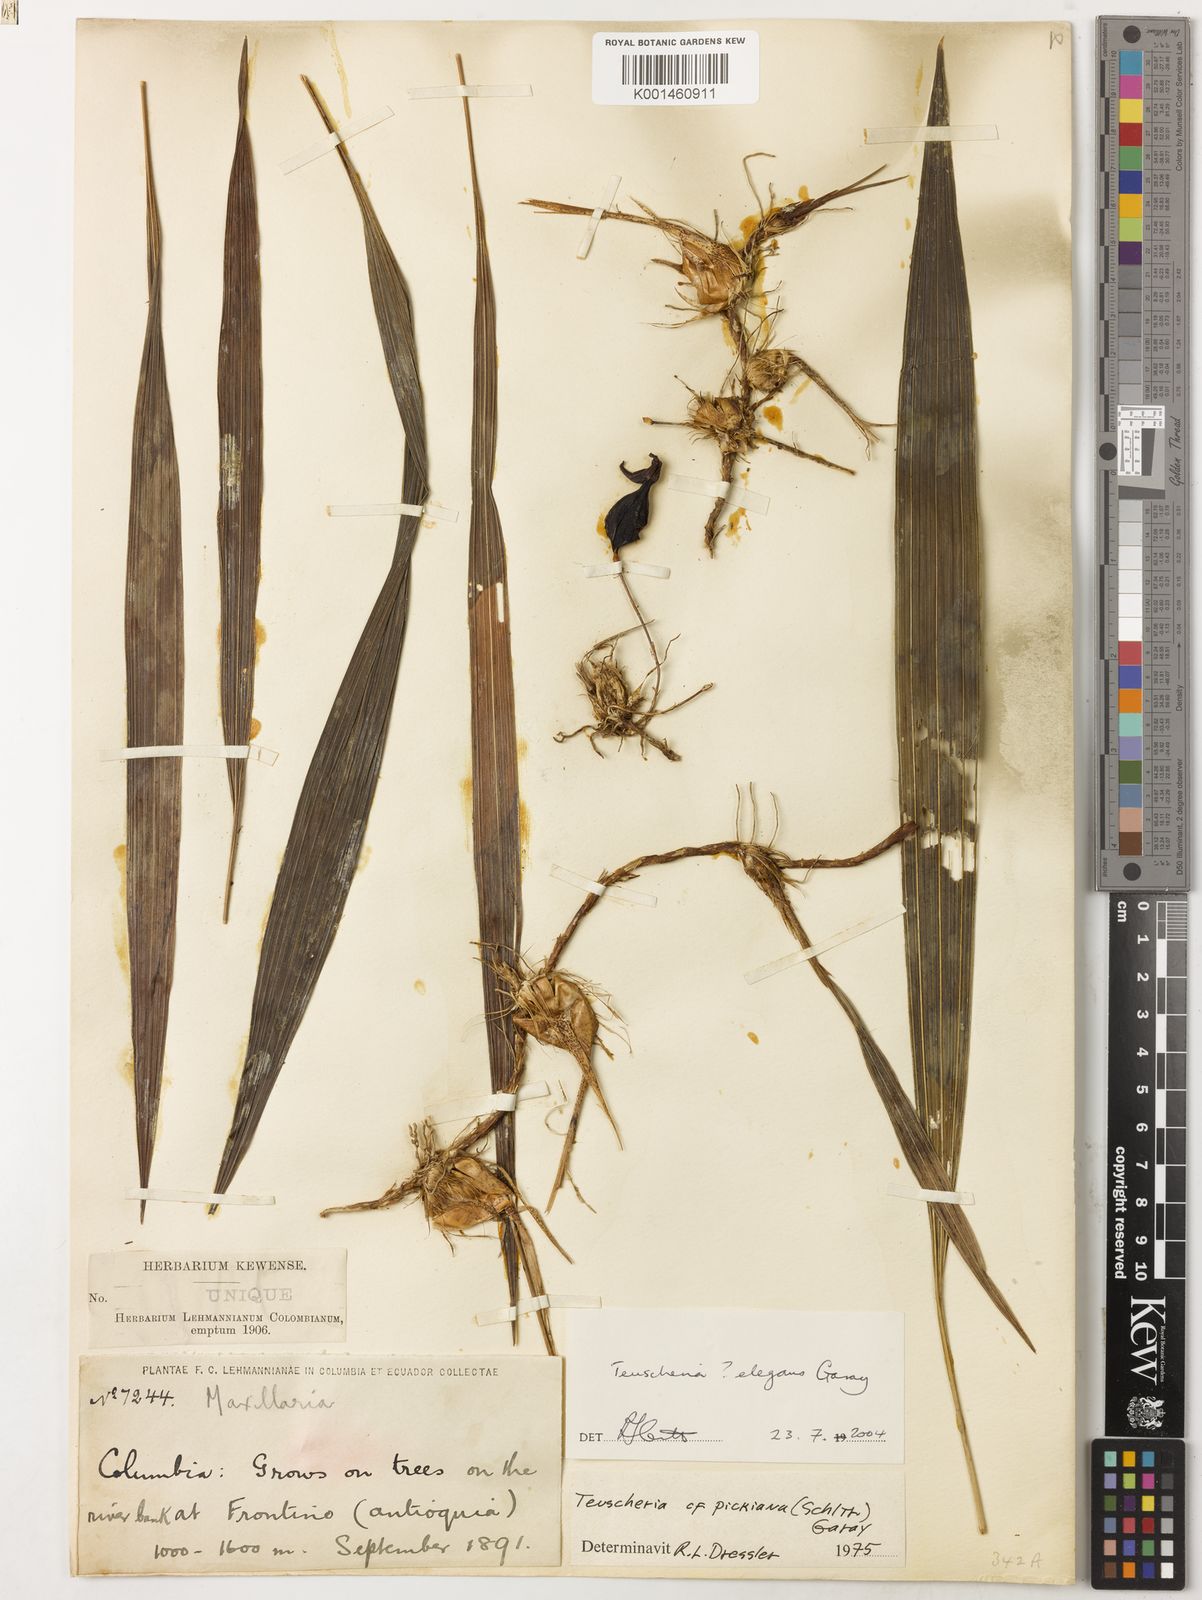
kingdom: Plantae
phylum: Tracheophyta
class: Liliopsida
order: Asparagales
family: Orchidaceae
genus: Teuscheria
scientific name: Teuscheria elegans
